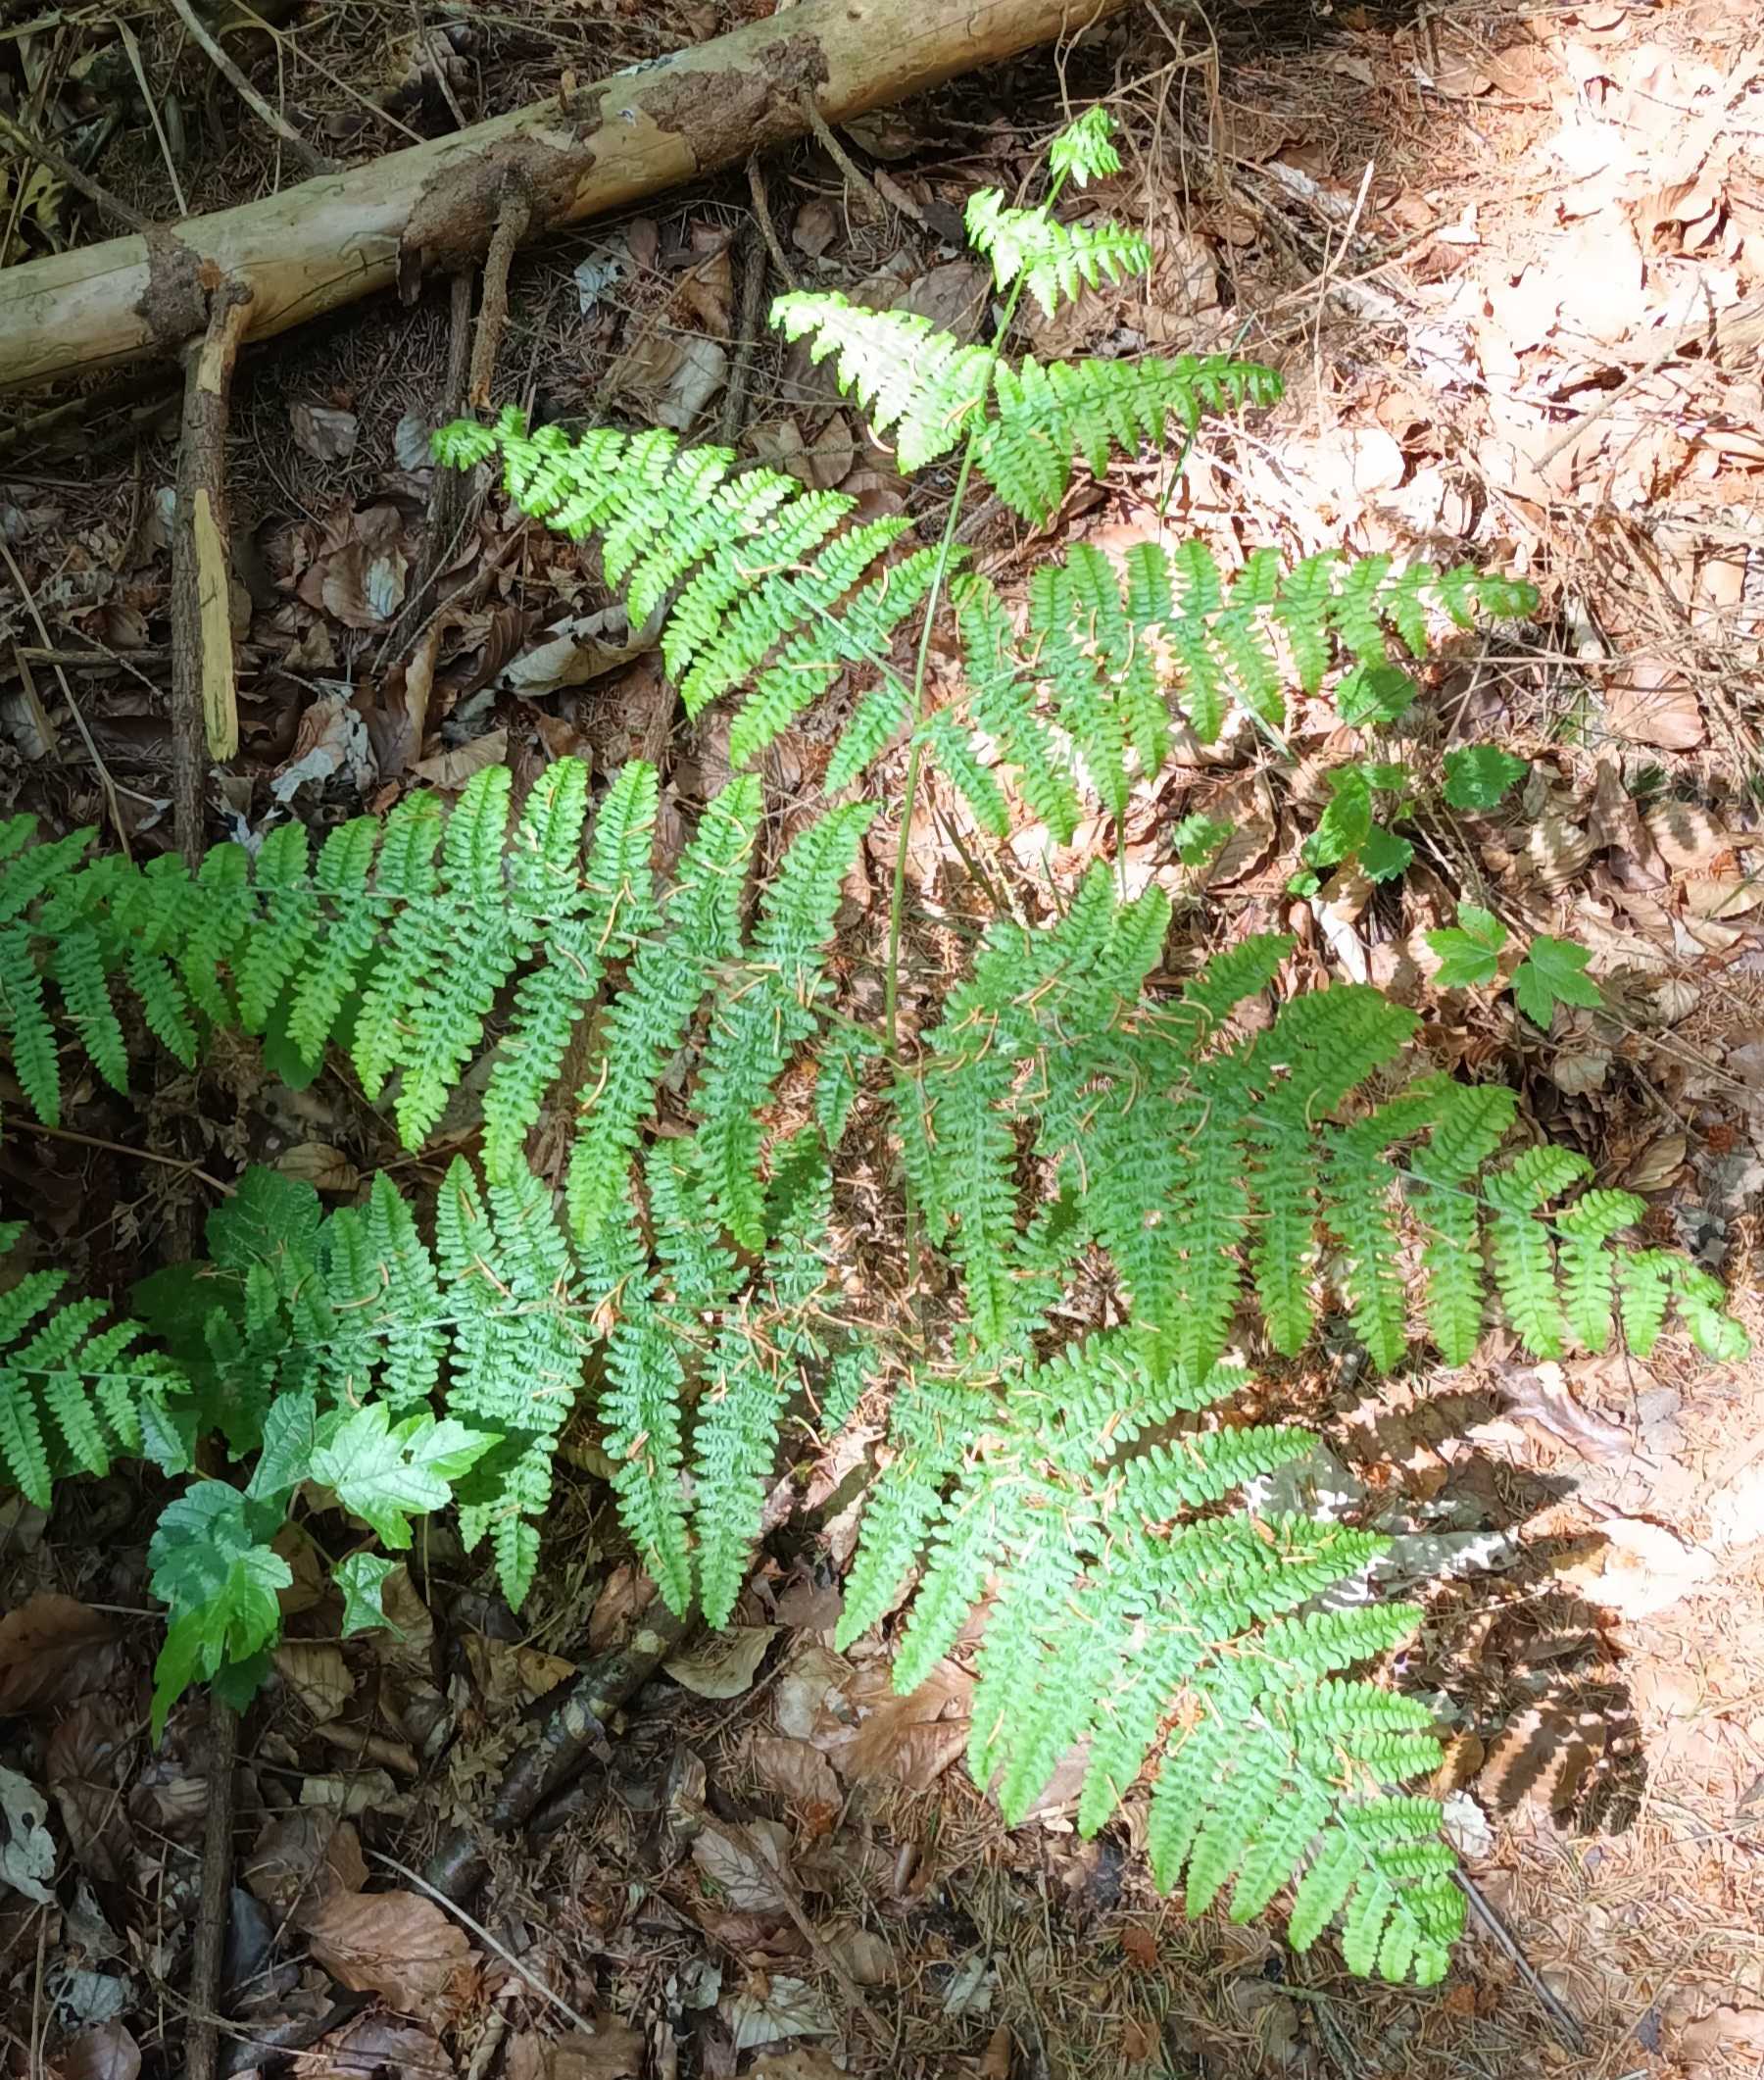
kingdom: Plantae
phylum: Tracheophyta
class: Polypodiopsida
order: Polypodiales
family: Dennstaedtiaceae
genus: Pteridium
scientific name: Pteridium aquilinum
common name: Ørnebregne
